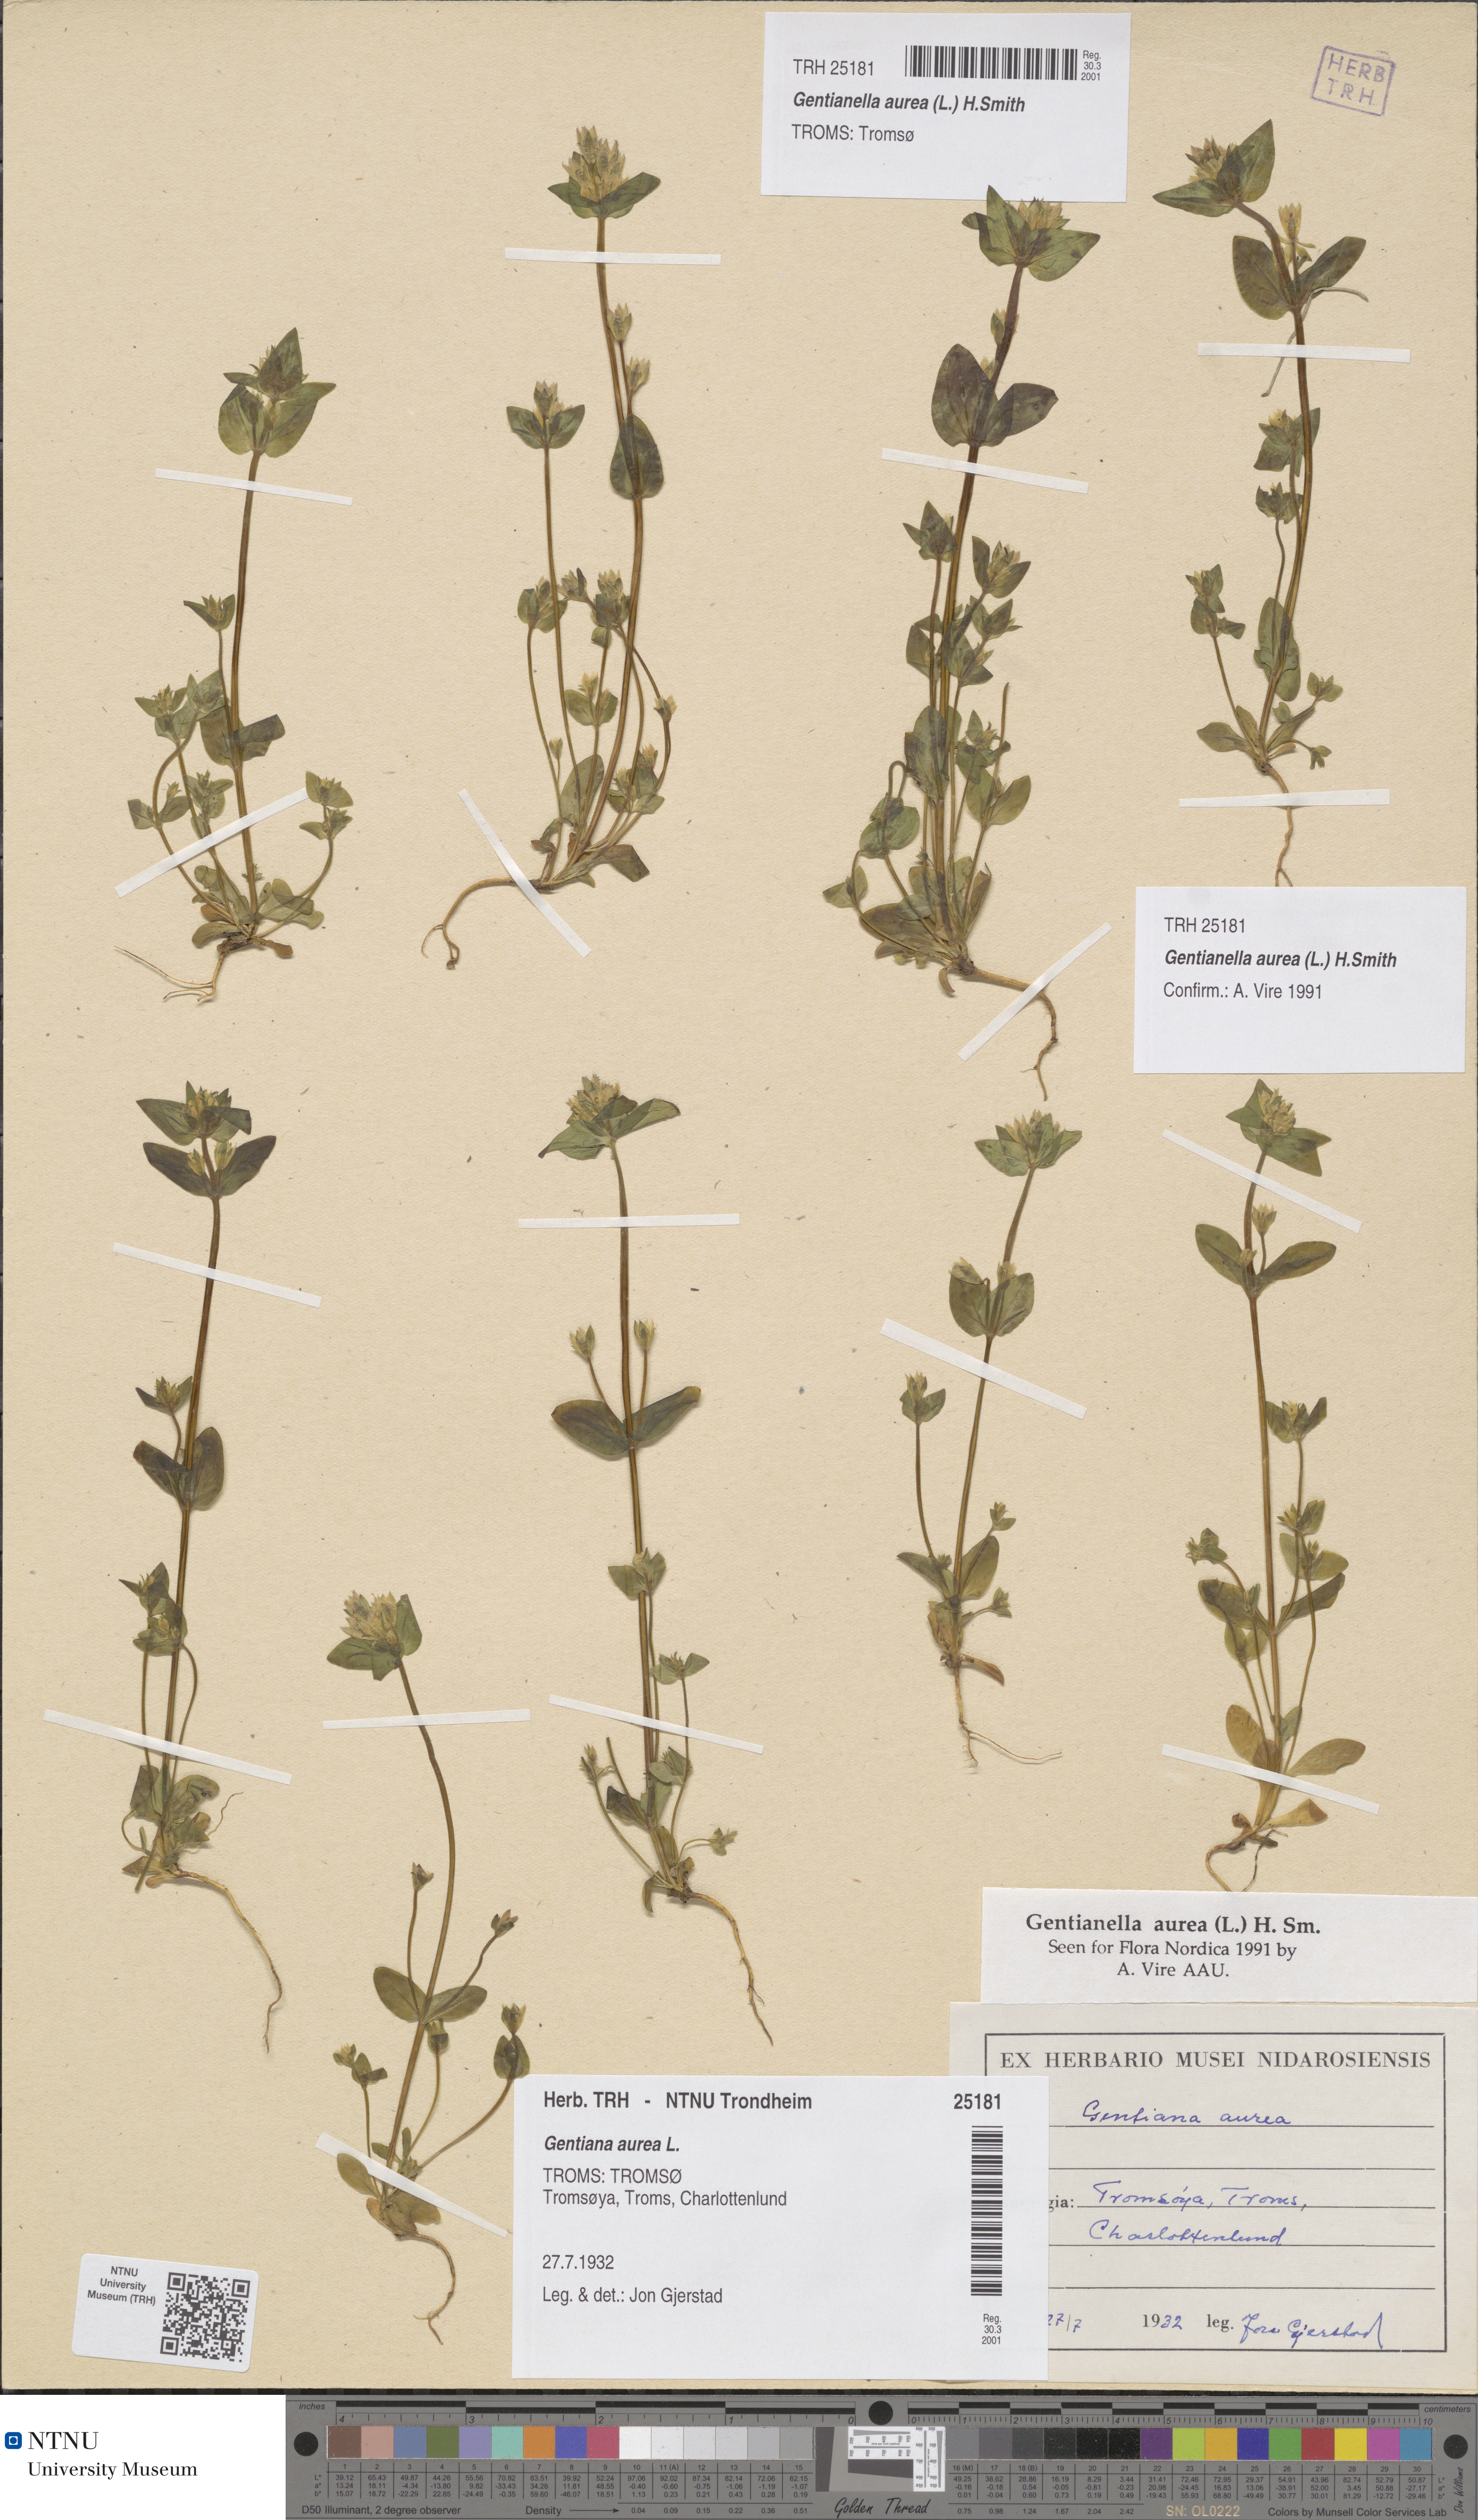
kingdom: Plantae
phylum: Tracheophyta
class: Magnoliopsida
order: Gentianales
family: Gentianaceae
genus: Gentianella
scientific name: Gentianella aurea
